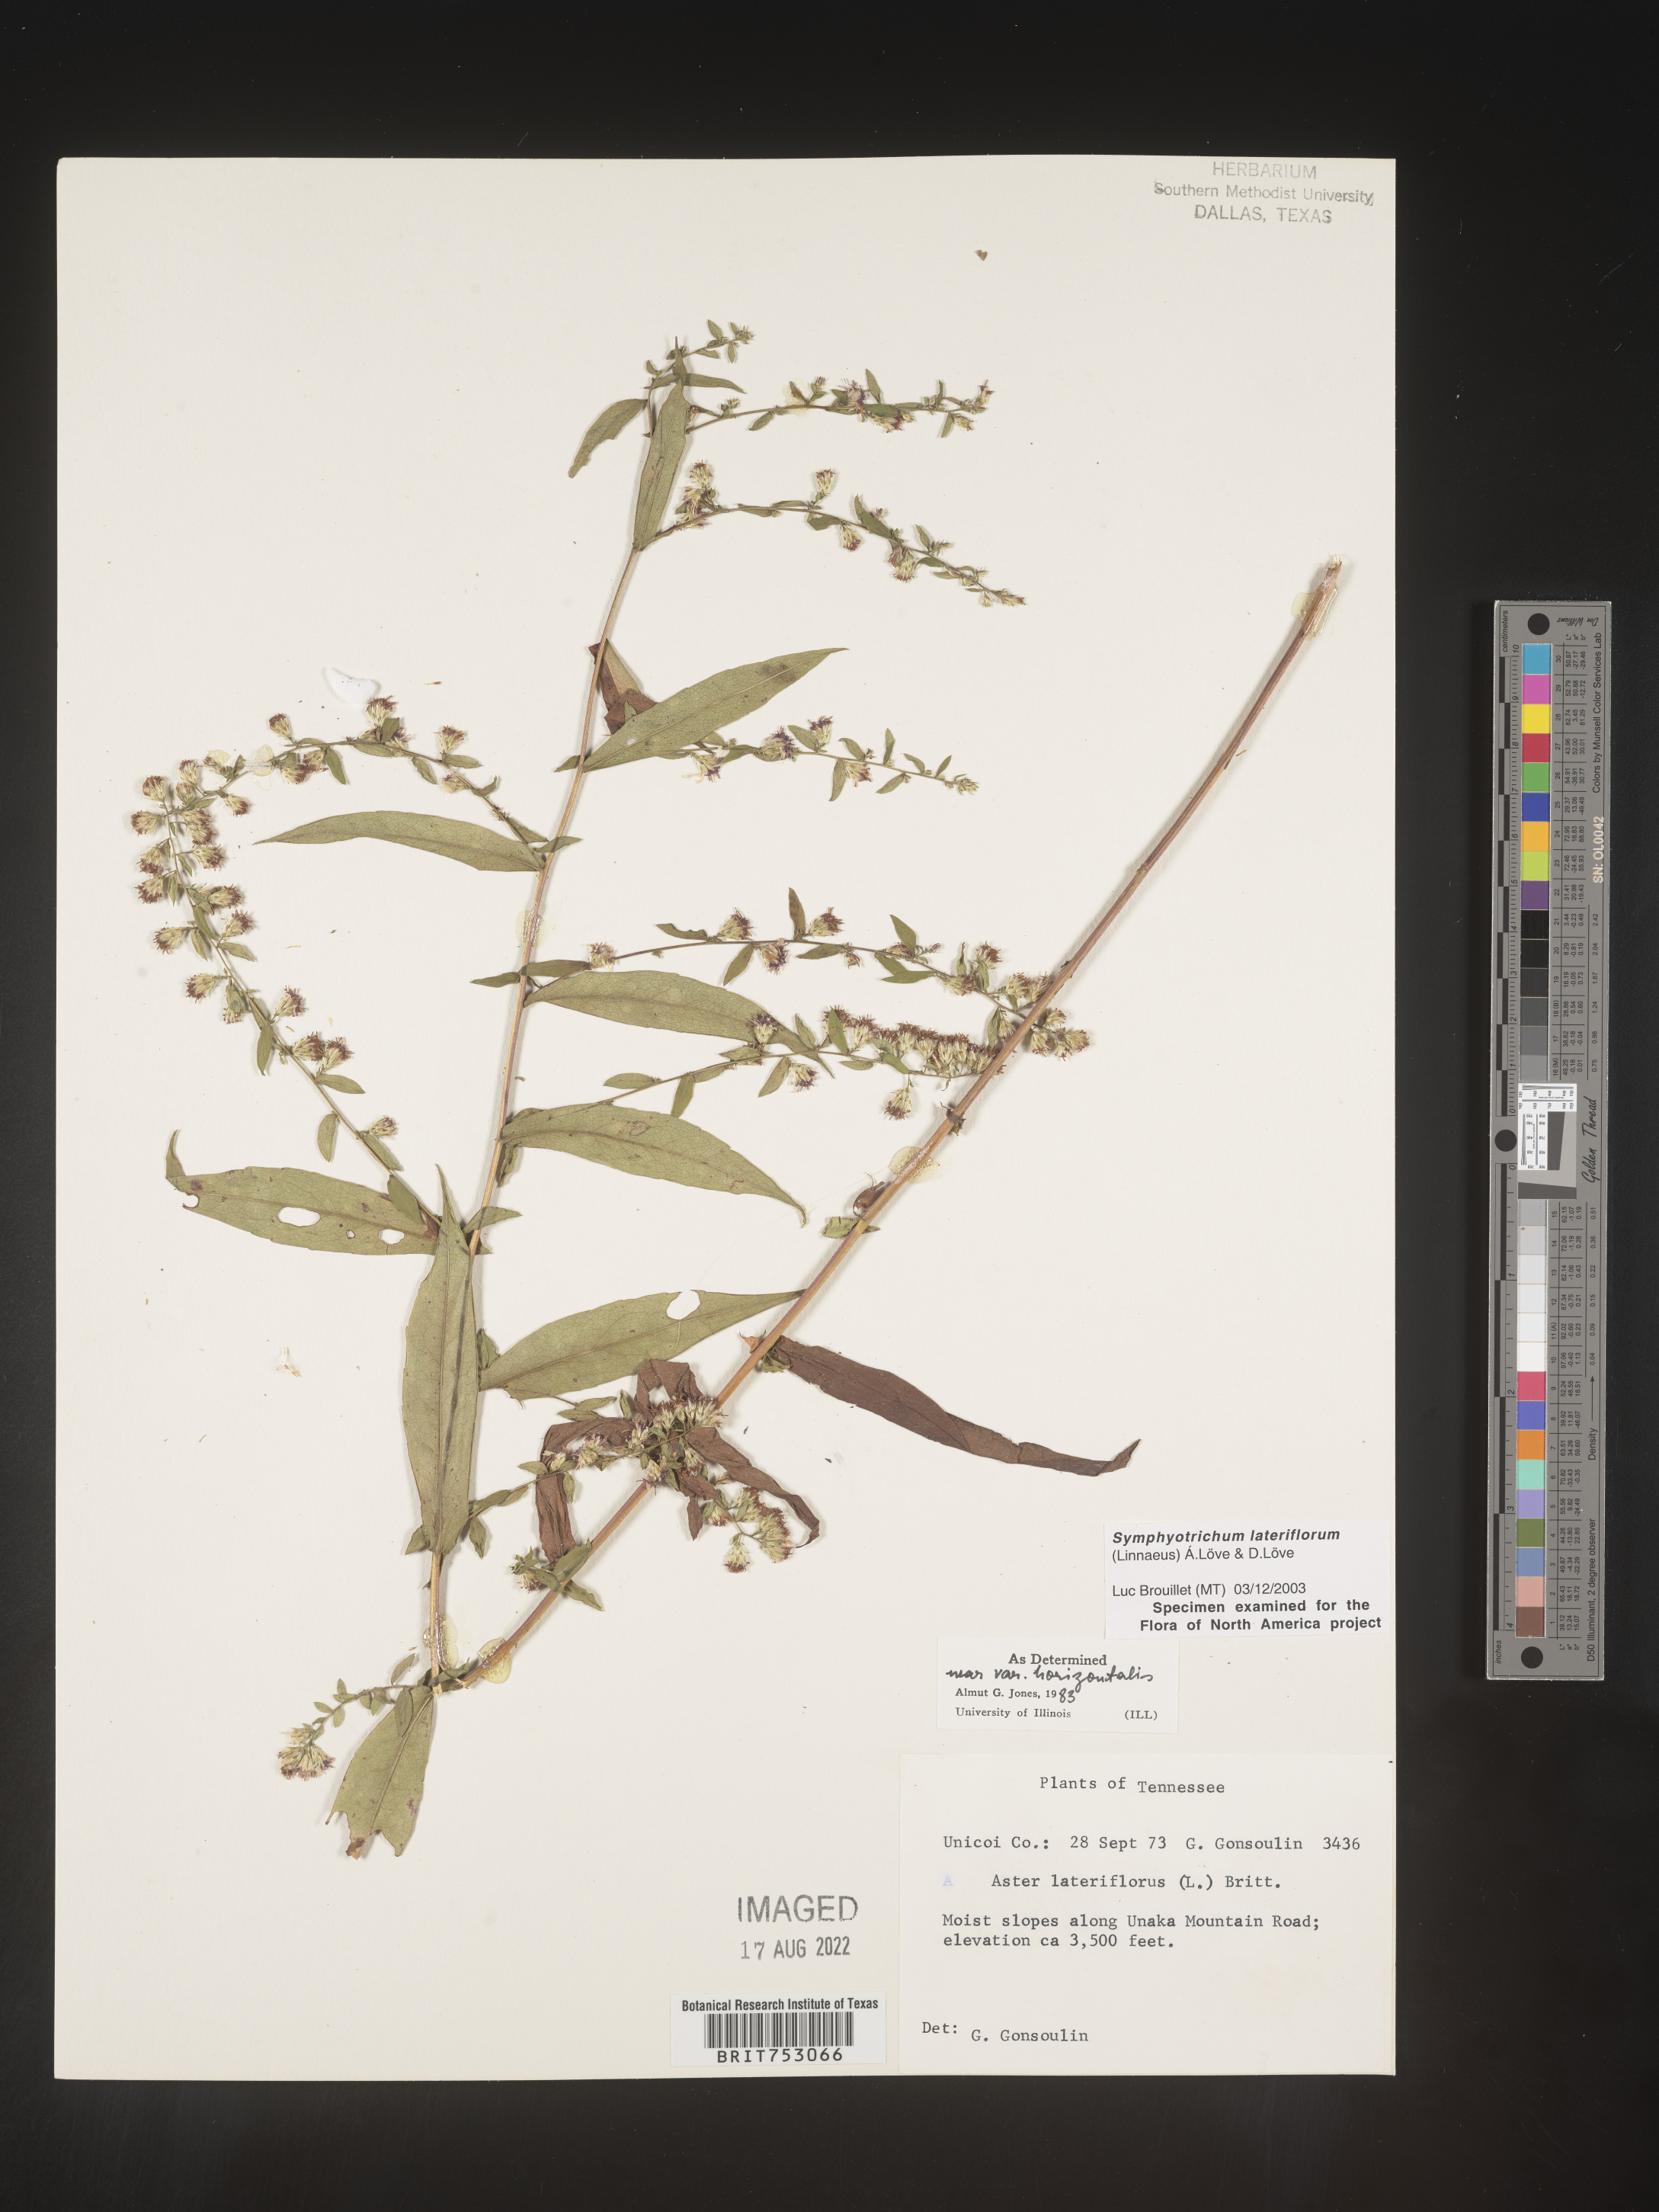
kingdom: Plantae
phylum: Tracheophyta
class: Magnoliopsida
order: Asterales
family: Asteraceae
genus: Symphyotrichum
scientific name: Symphyotrichum lateriflorum
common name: Calico aster
